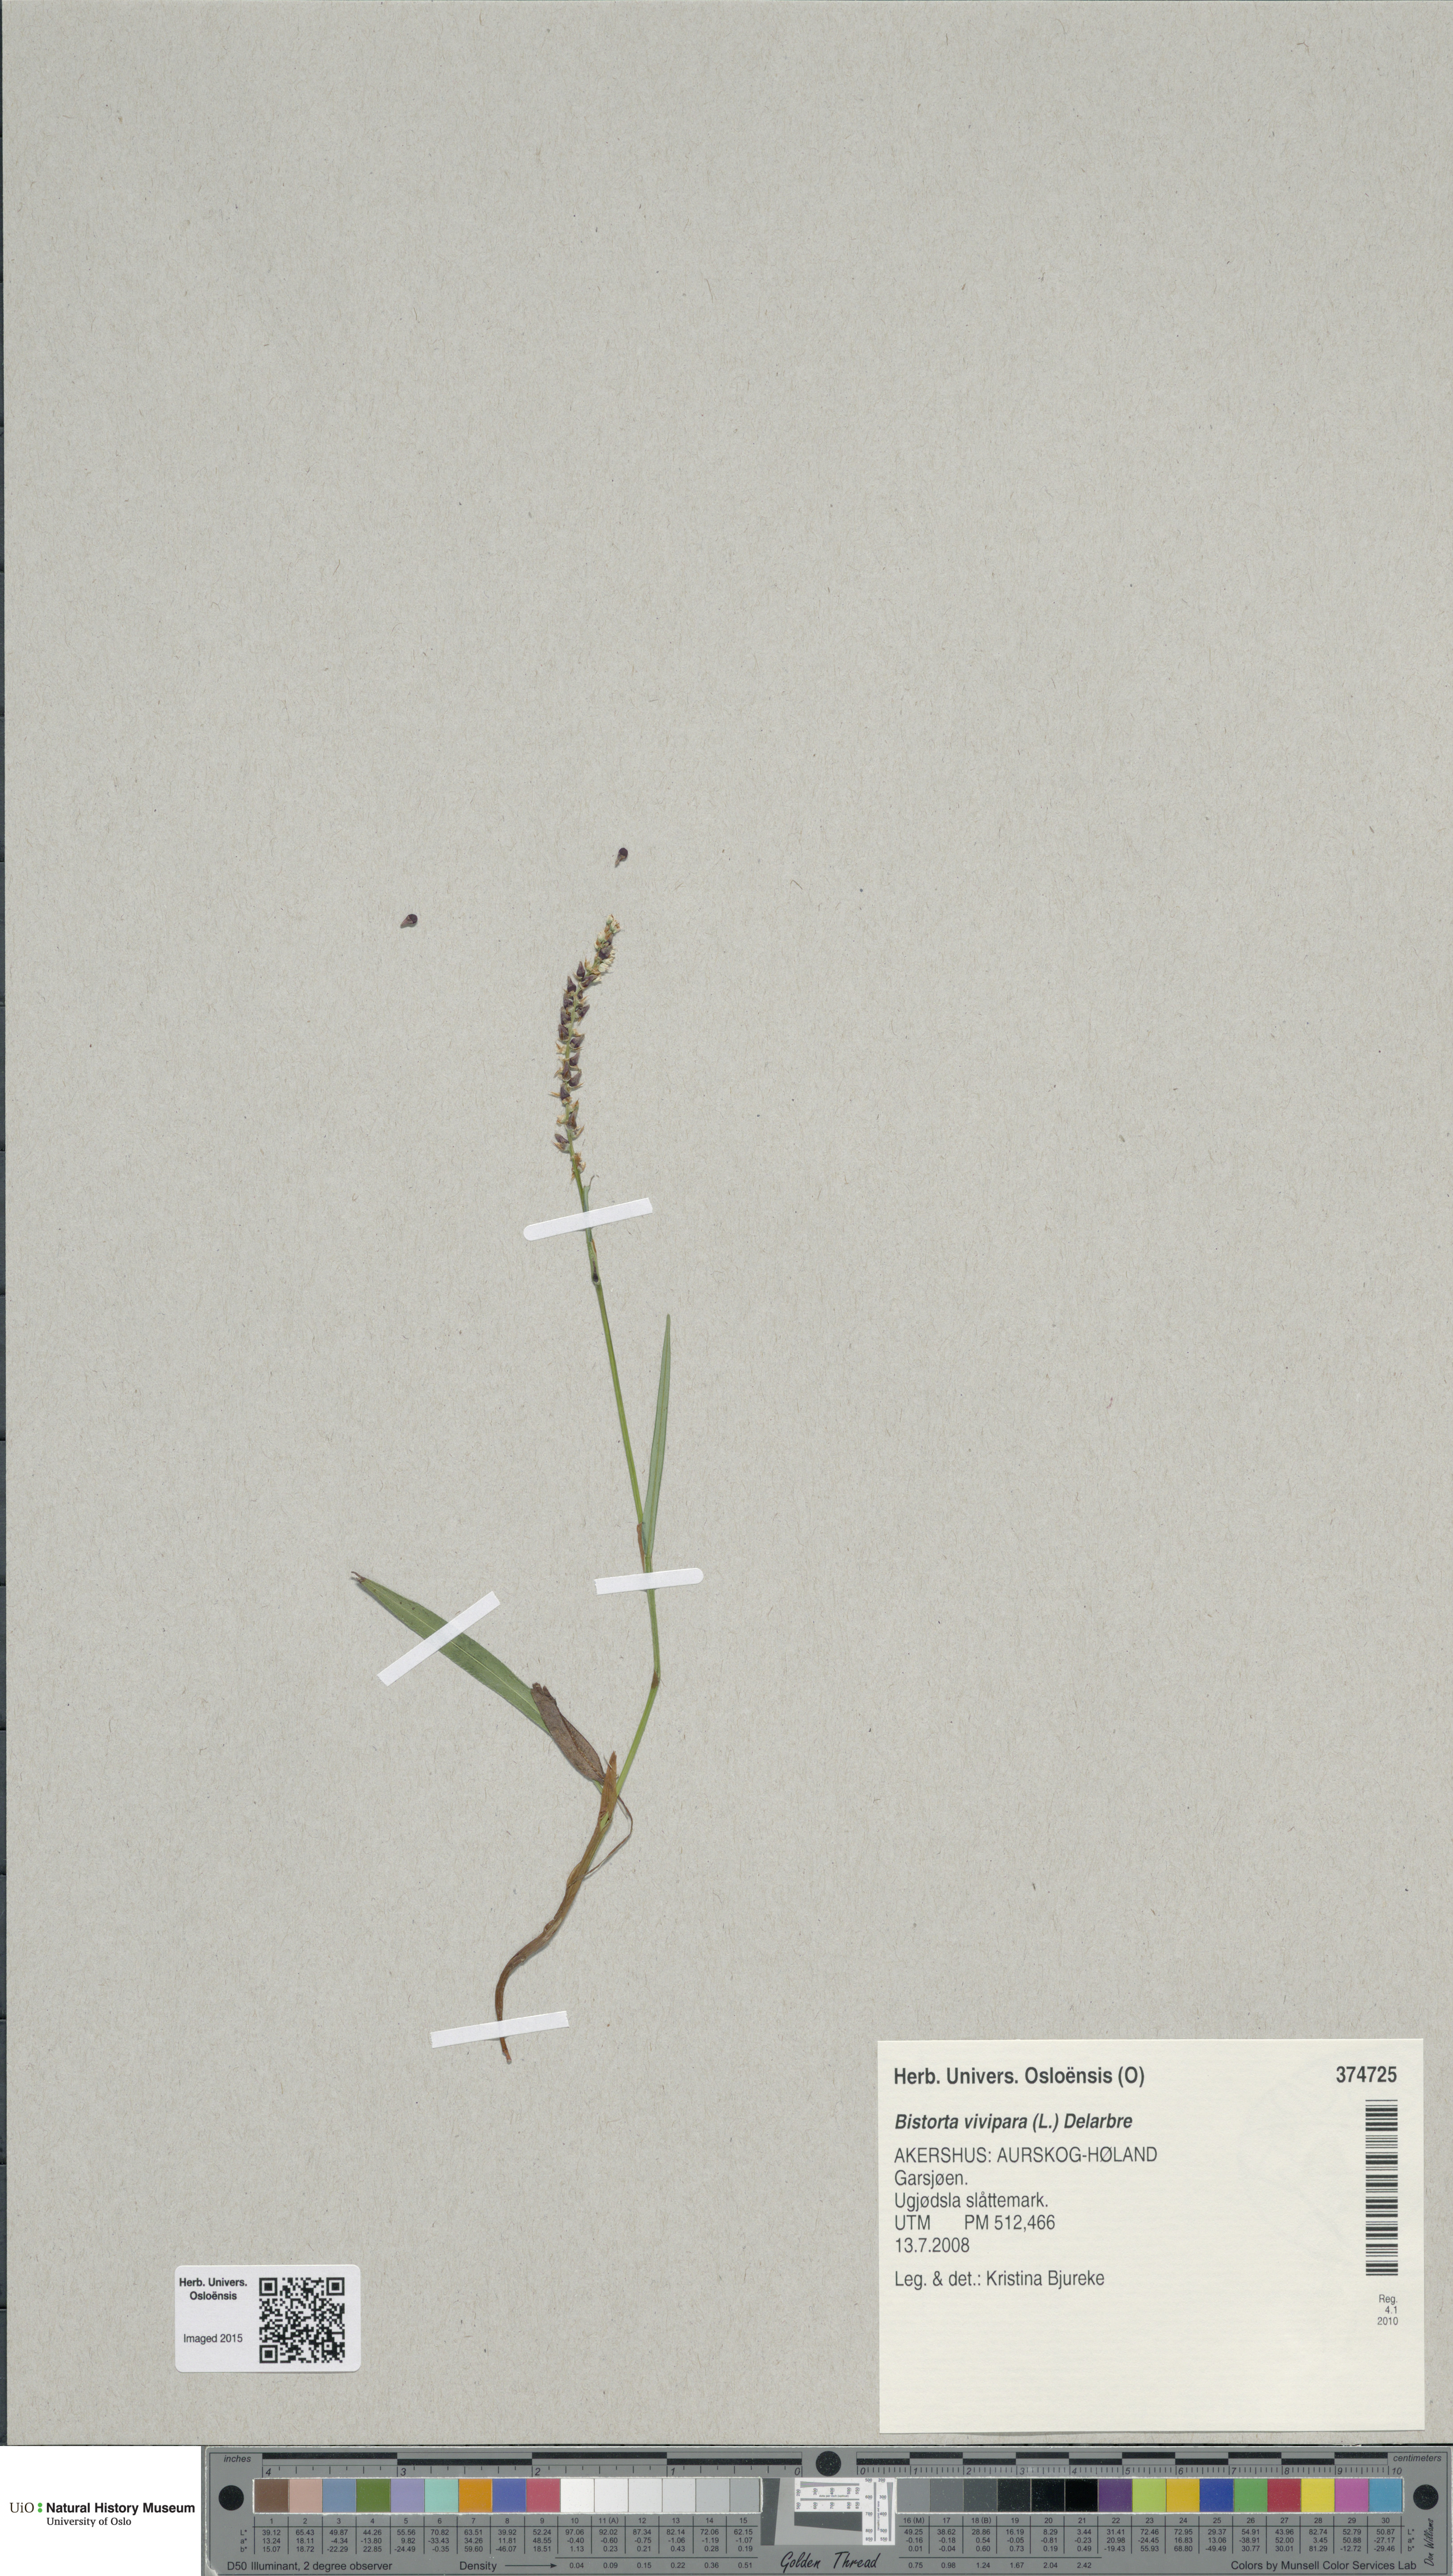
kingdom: Plantae
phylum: Tracheophyta
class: Magnoliopsida
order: Caryophyllales
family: Polygonaceae
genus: Bistorta
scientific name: Bistorta vivipara
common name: Alpine bistort
